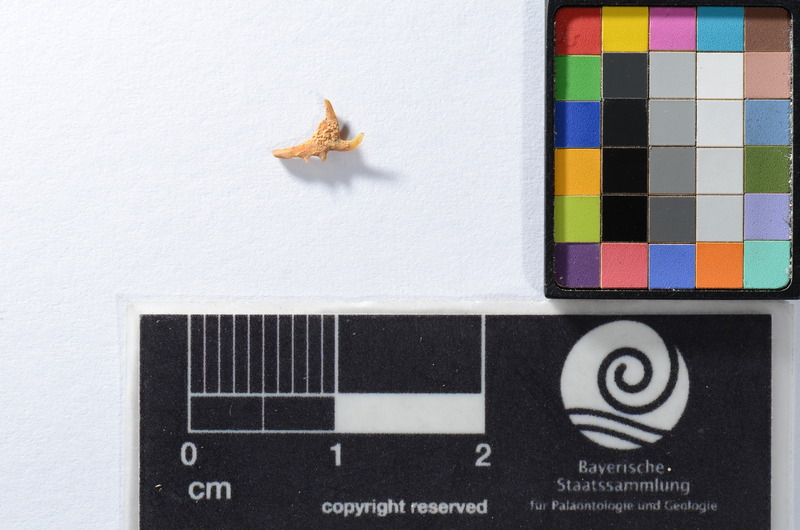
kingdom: Animalia
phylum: Chordata
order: Scorpaeniformes
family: Cottidae
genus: Cottus
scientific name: Cottus gobio
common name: Bullhead
